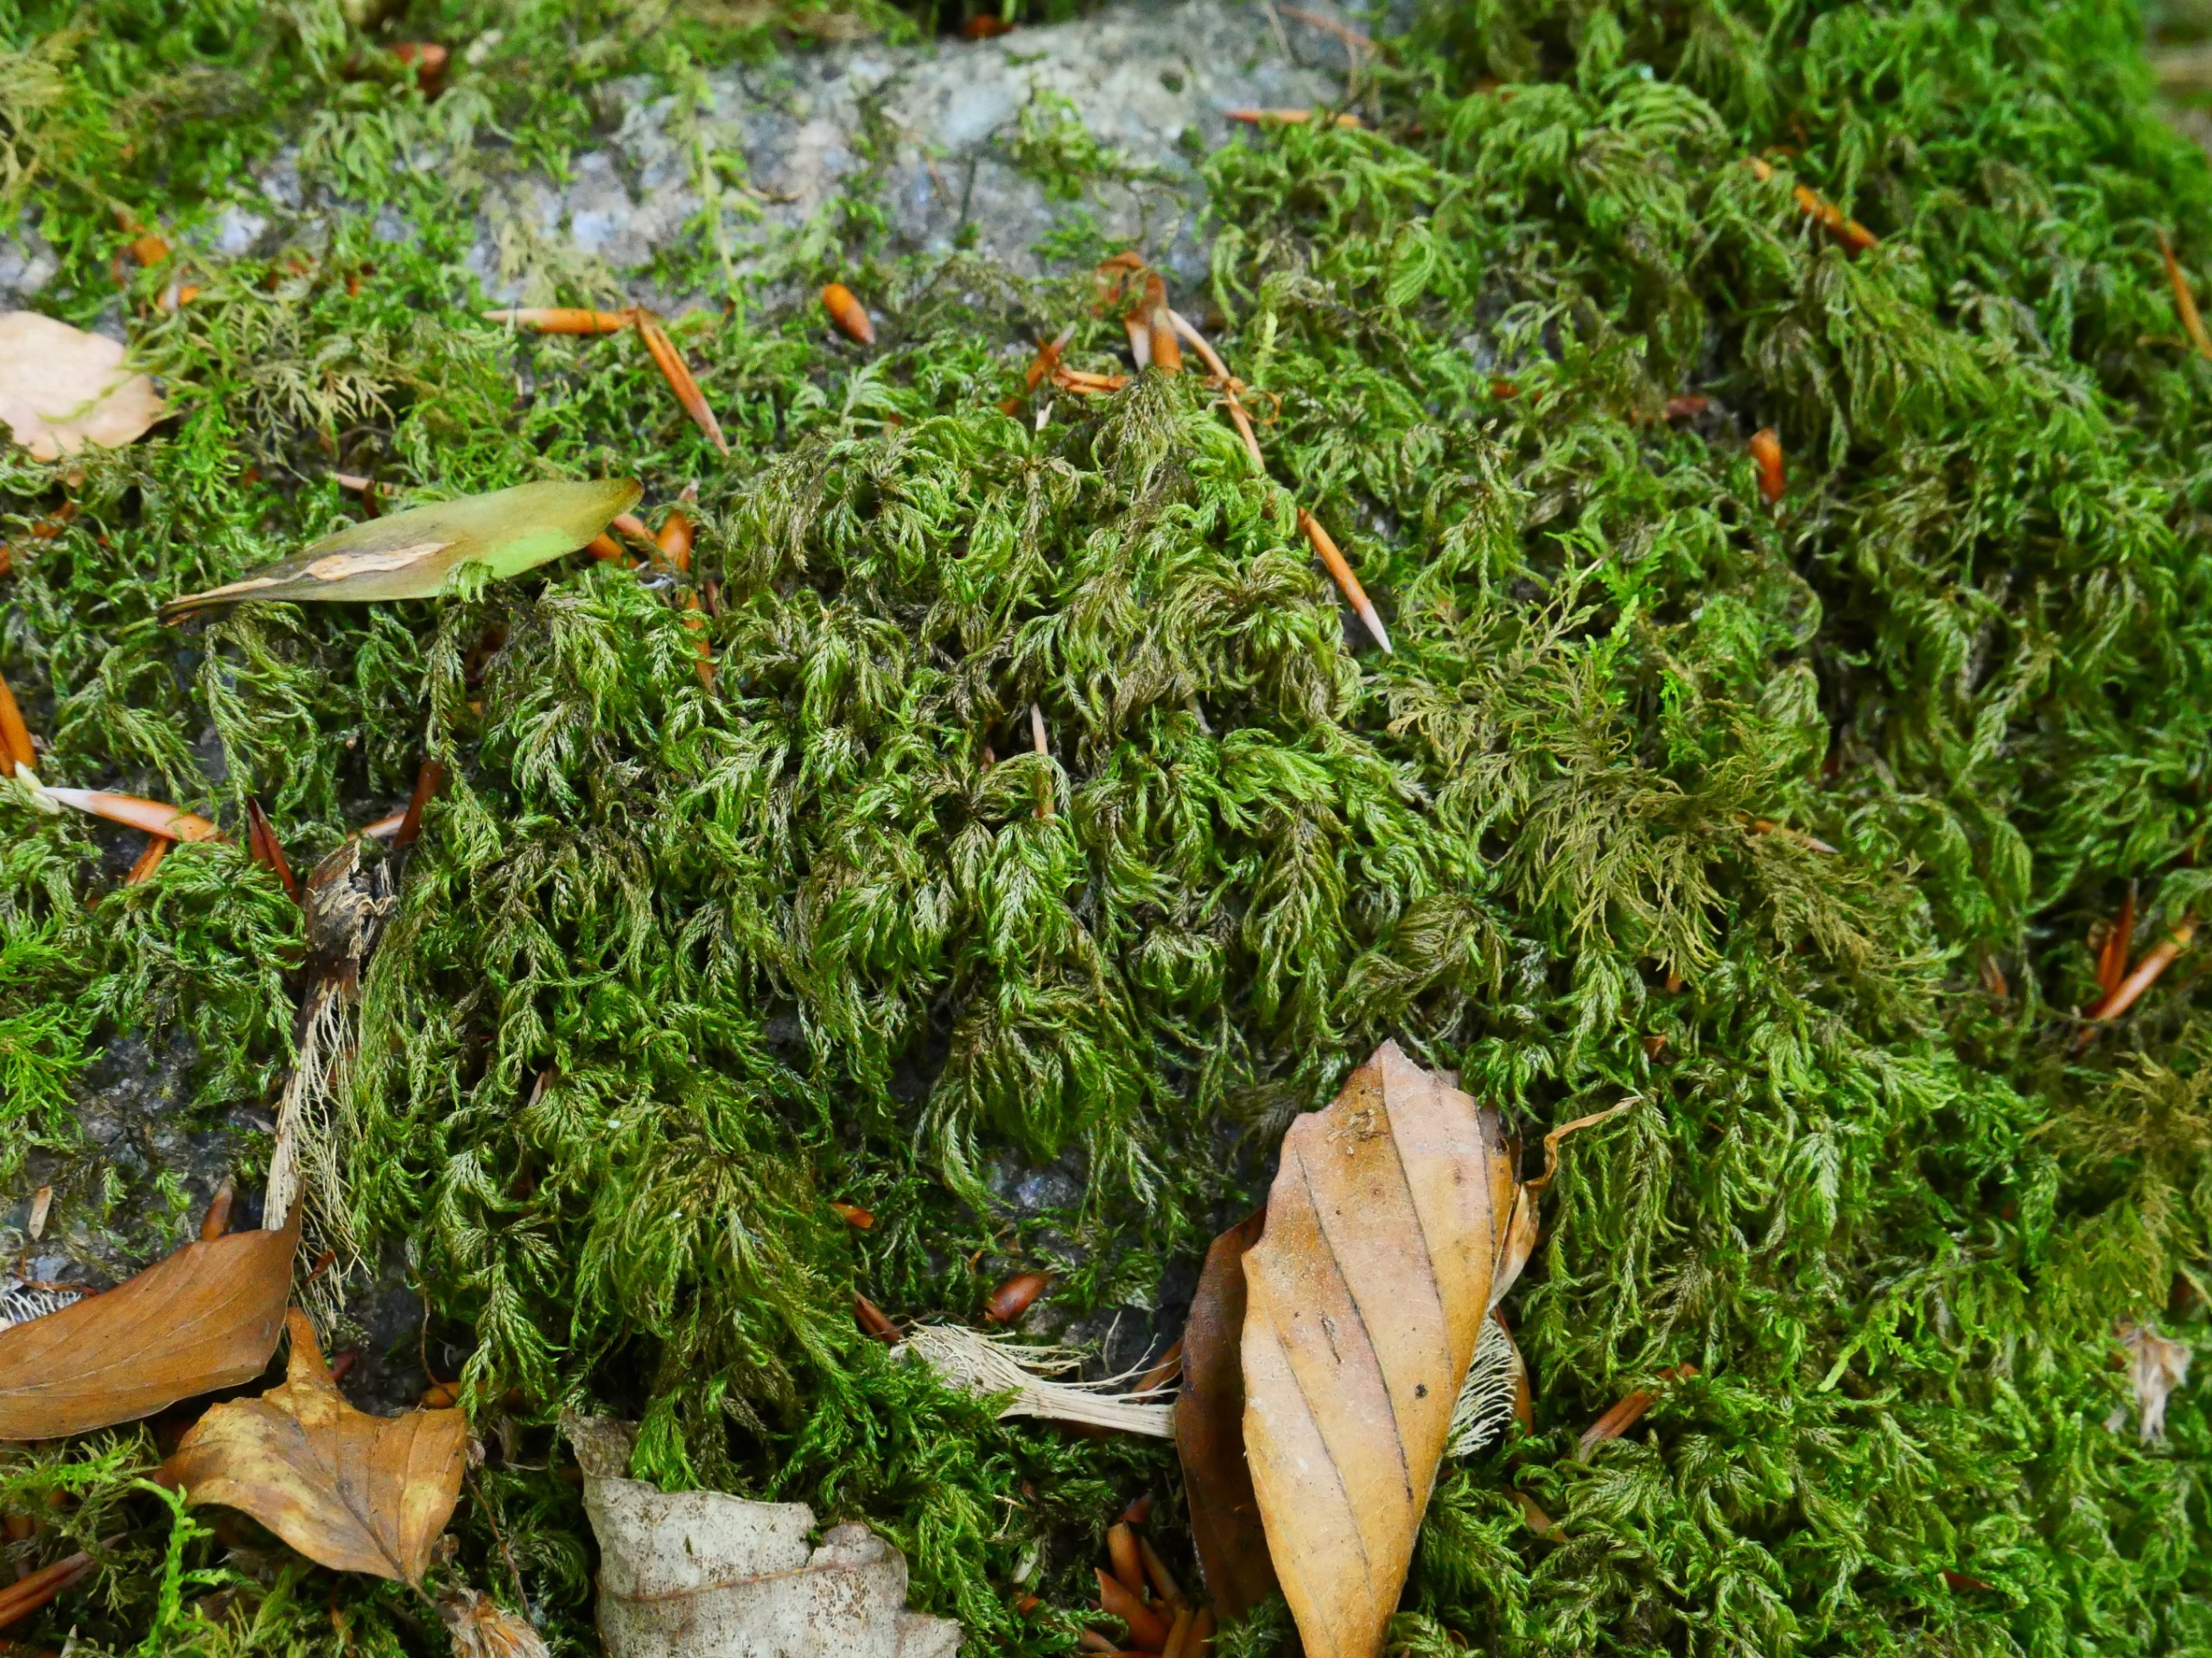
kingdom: Plantae
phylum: Bryophyta
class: Bryopsida
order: Hypnales
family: Lembophyllaceae
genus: Pseudisothecium
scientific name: Pseudisothecium myosuroides
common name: Slank stammemos
